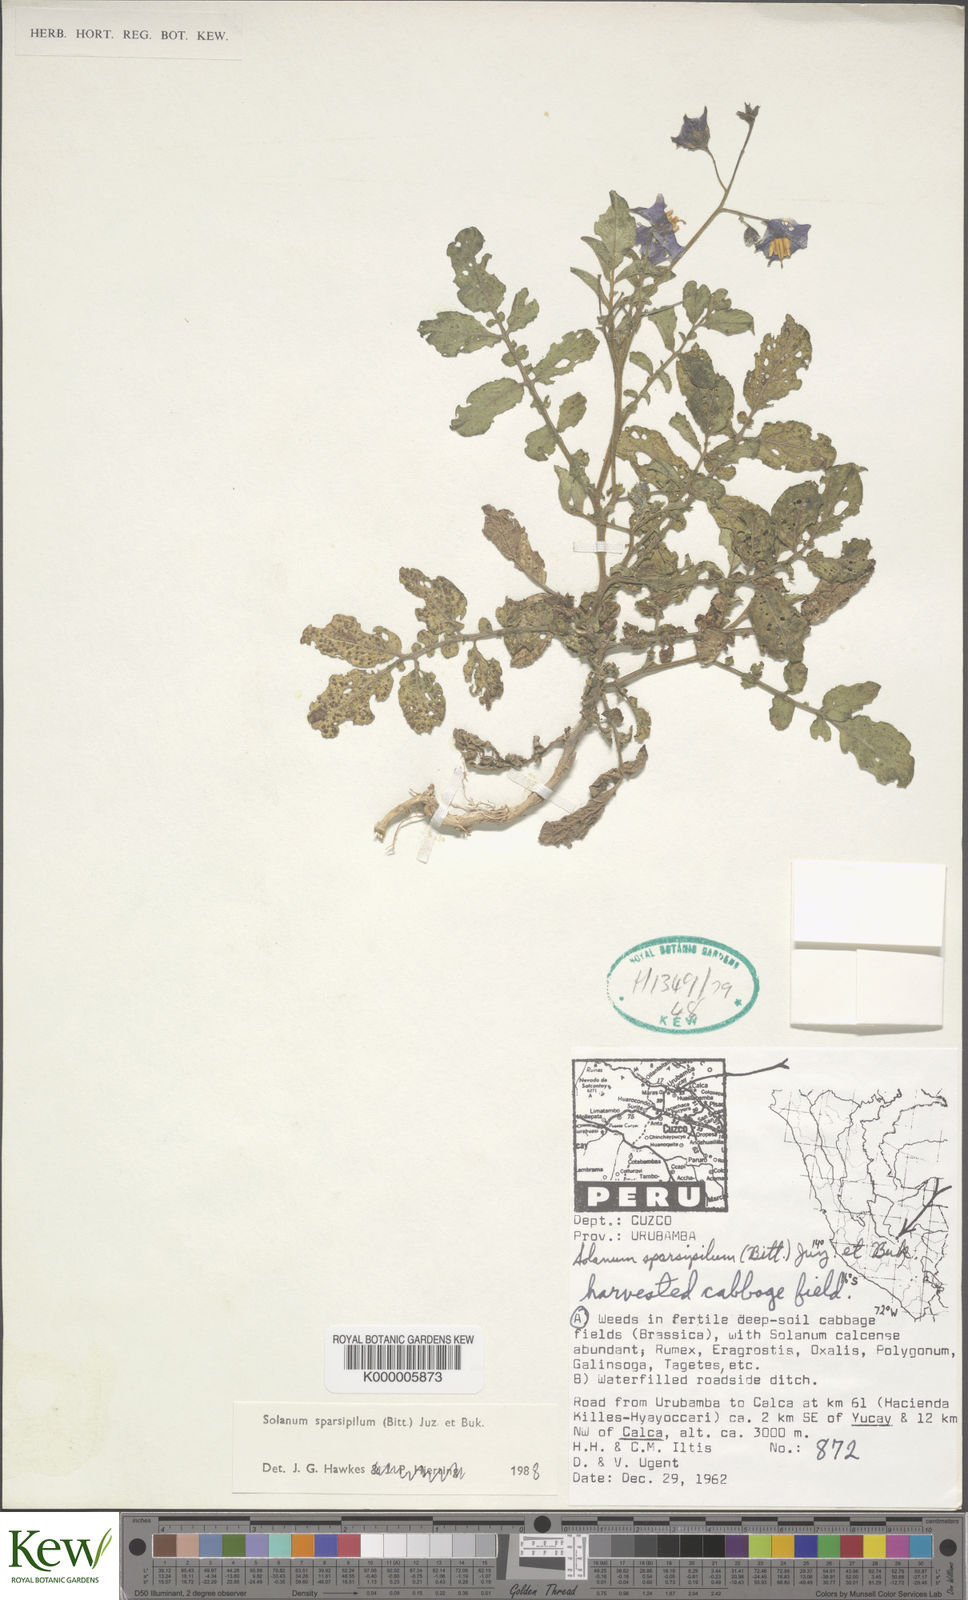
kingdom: Plantae
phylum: Tracheophyta
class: Magnoliopsida
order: Solanales
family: Solanaceae
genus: Solanum
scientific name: Solanum brevicaule
